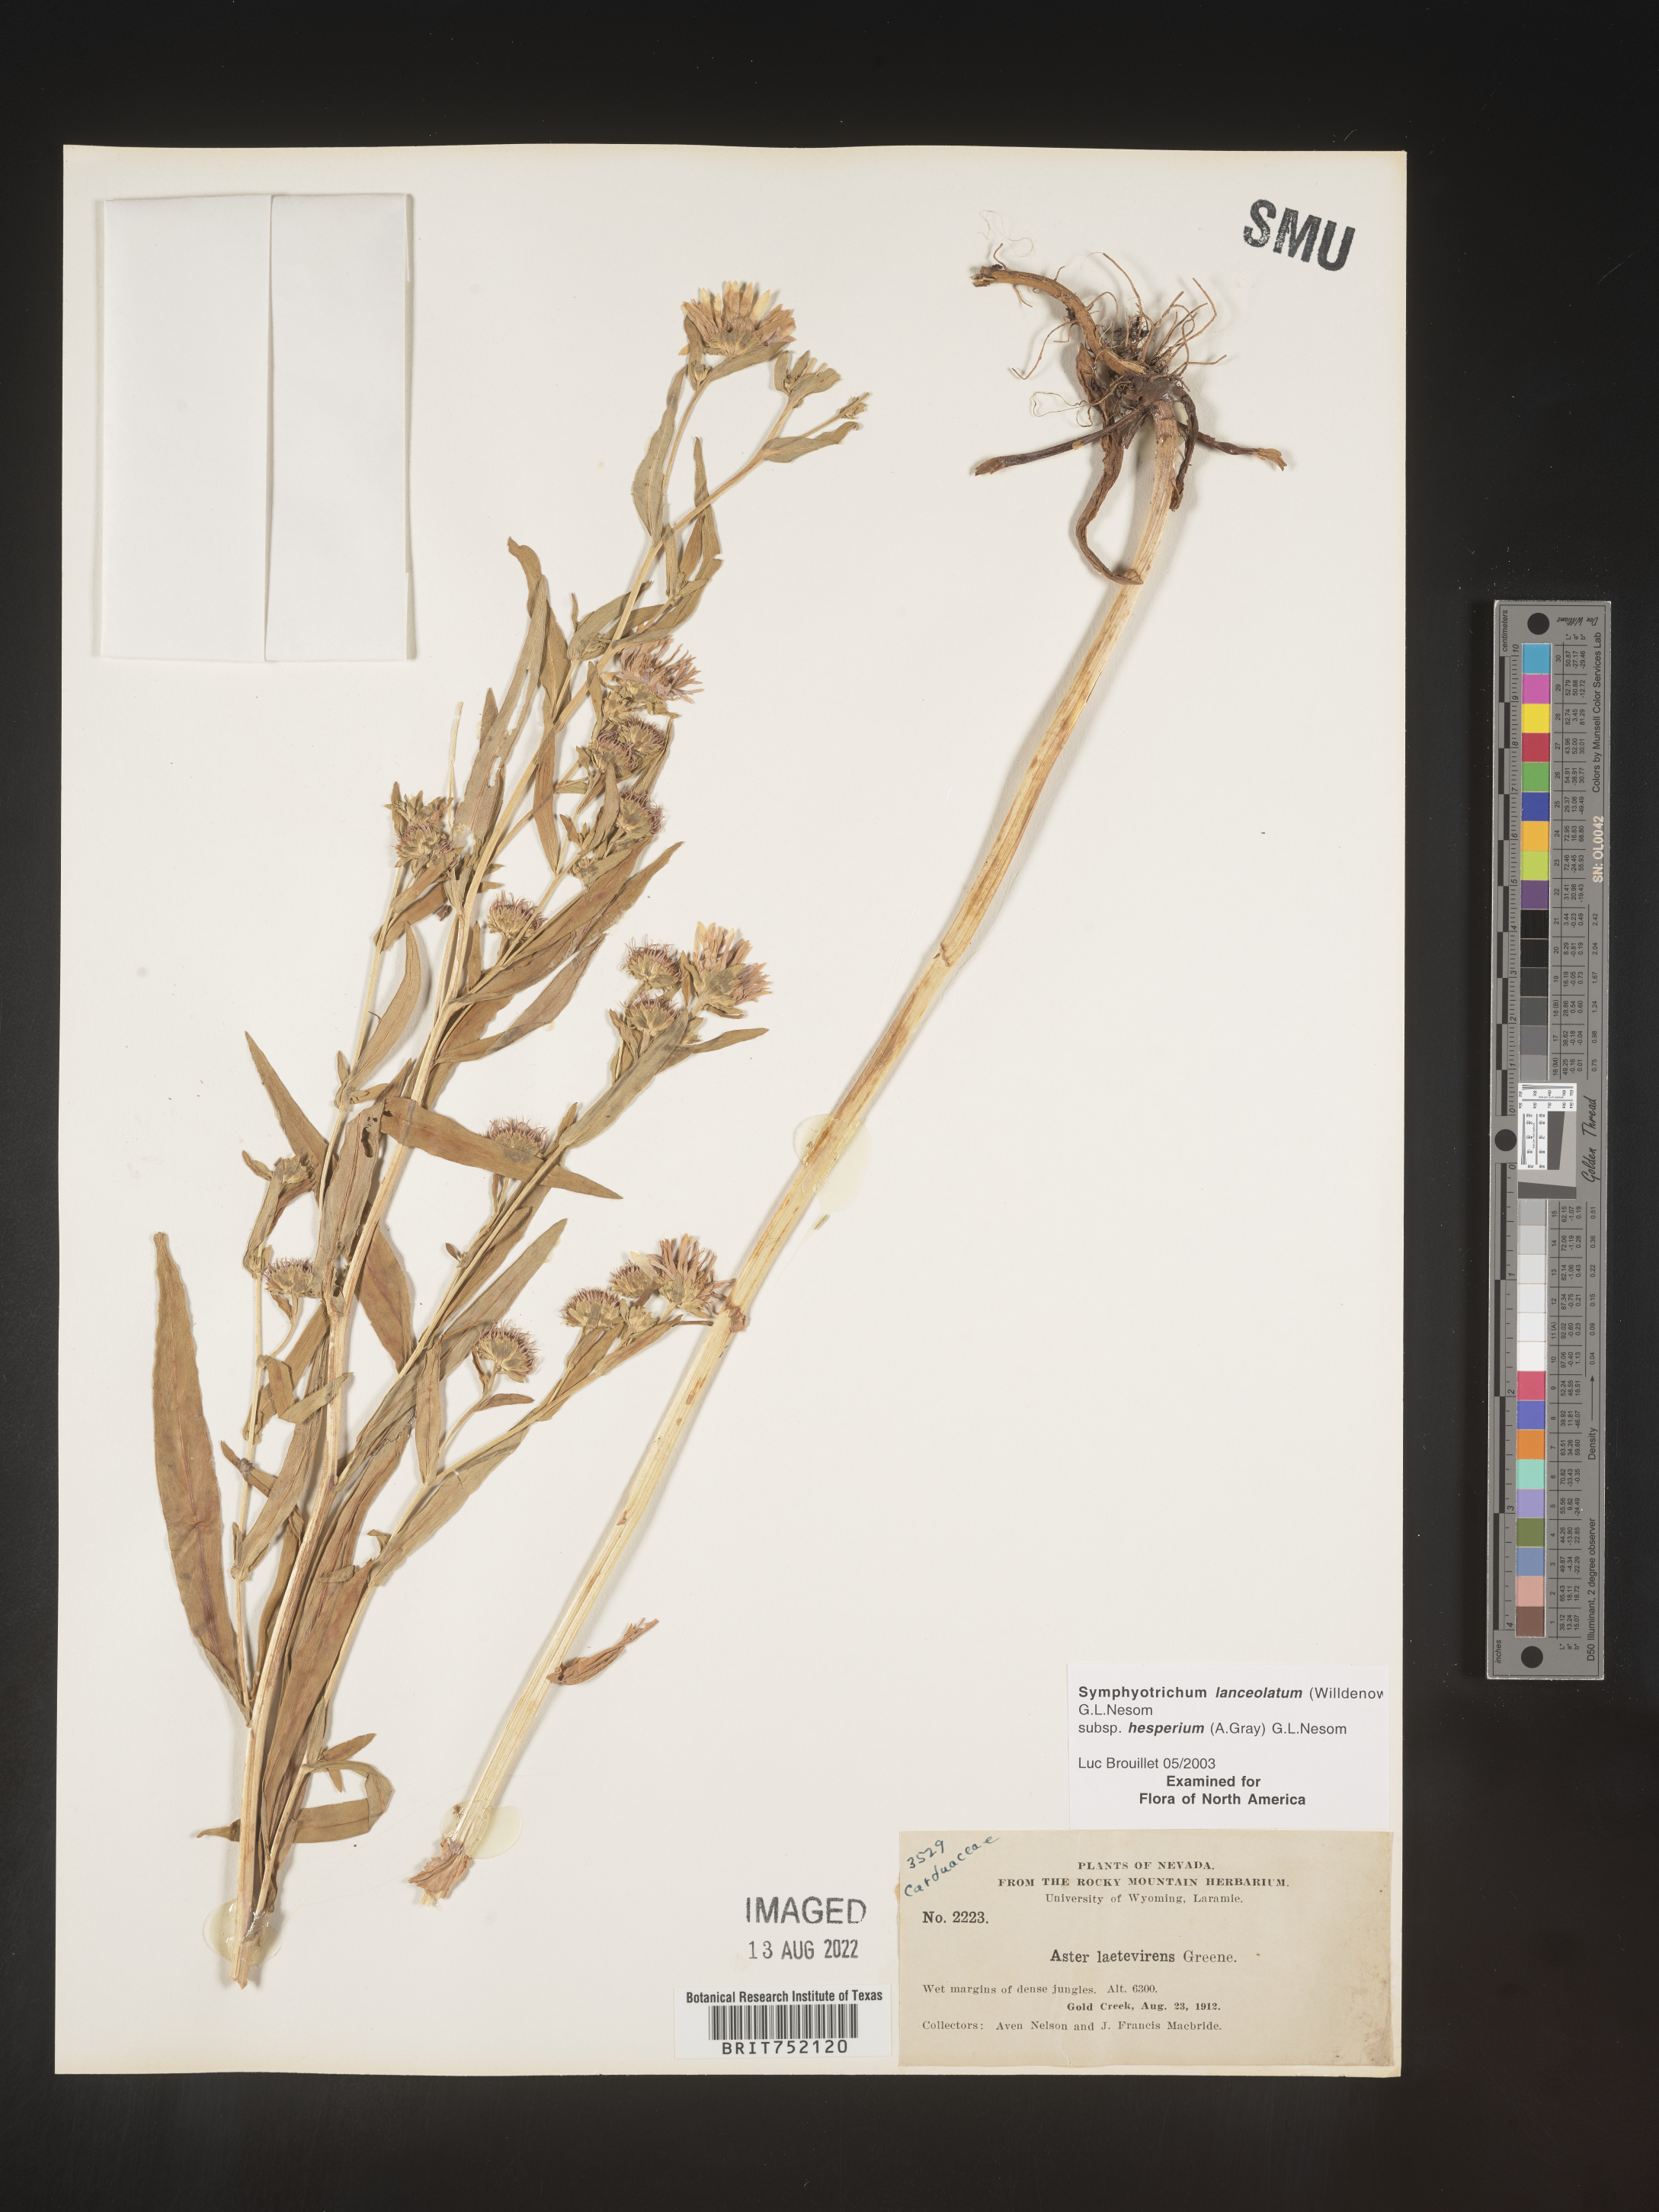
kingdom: Plantae
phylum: Tracheophyta
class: Magnoliopsida
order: Asterales
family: Asteraceae
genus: Symphyotrichum
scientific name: Symphyotrichum bracteolatum
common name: Eaton's aster
